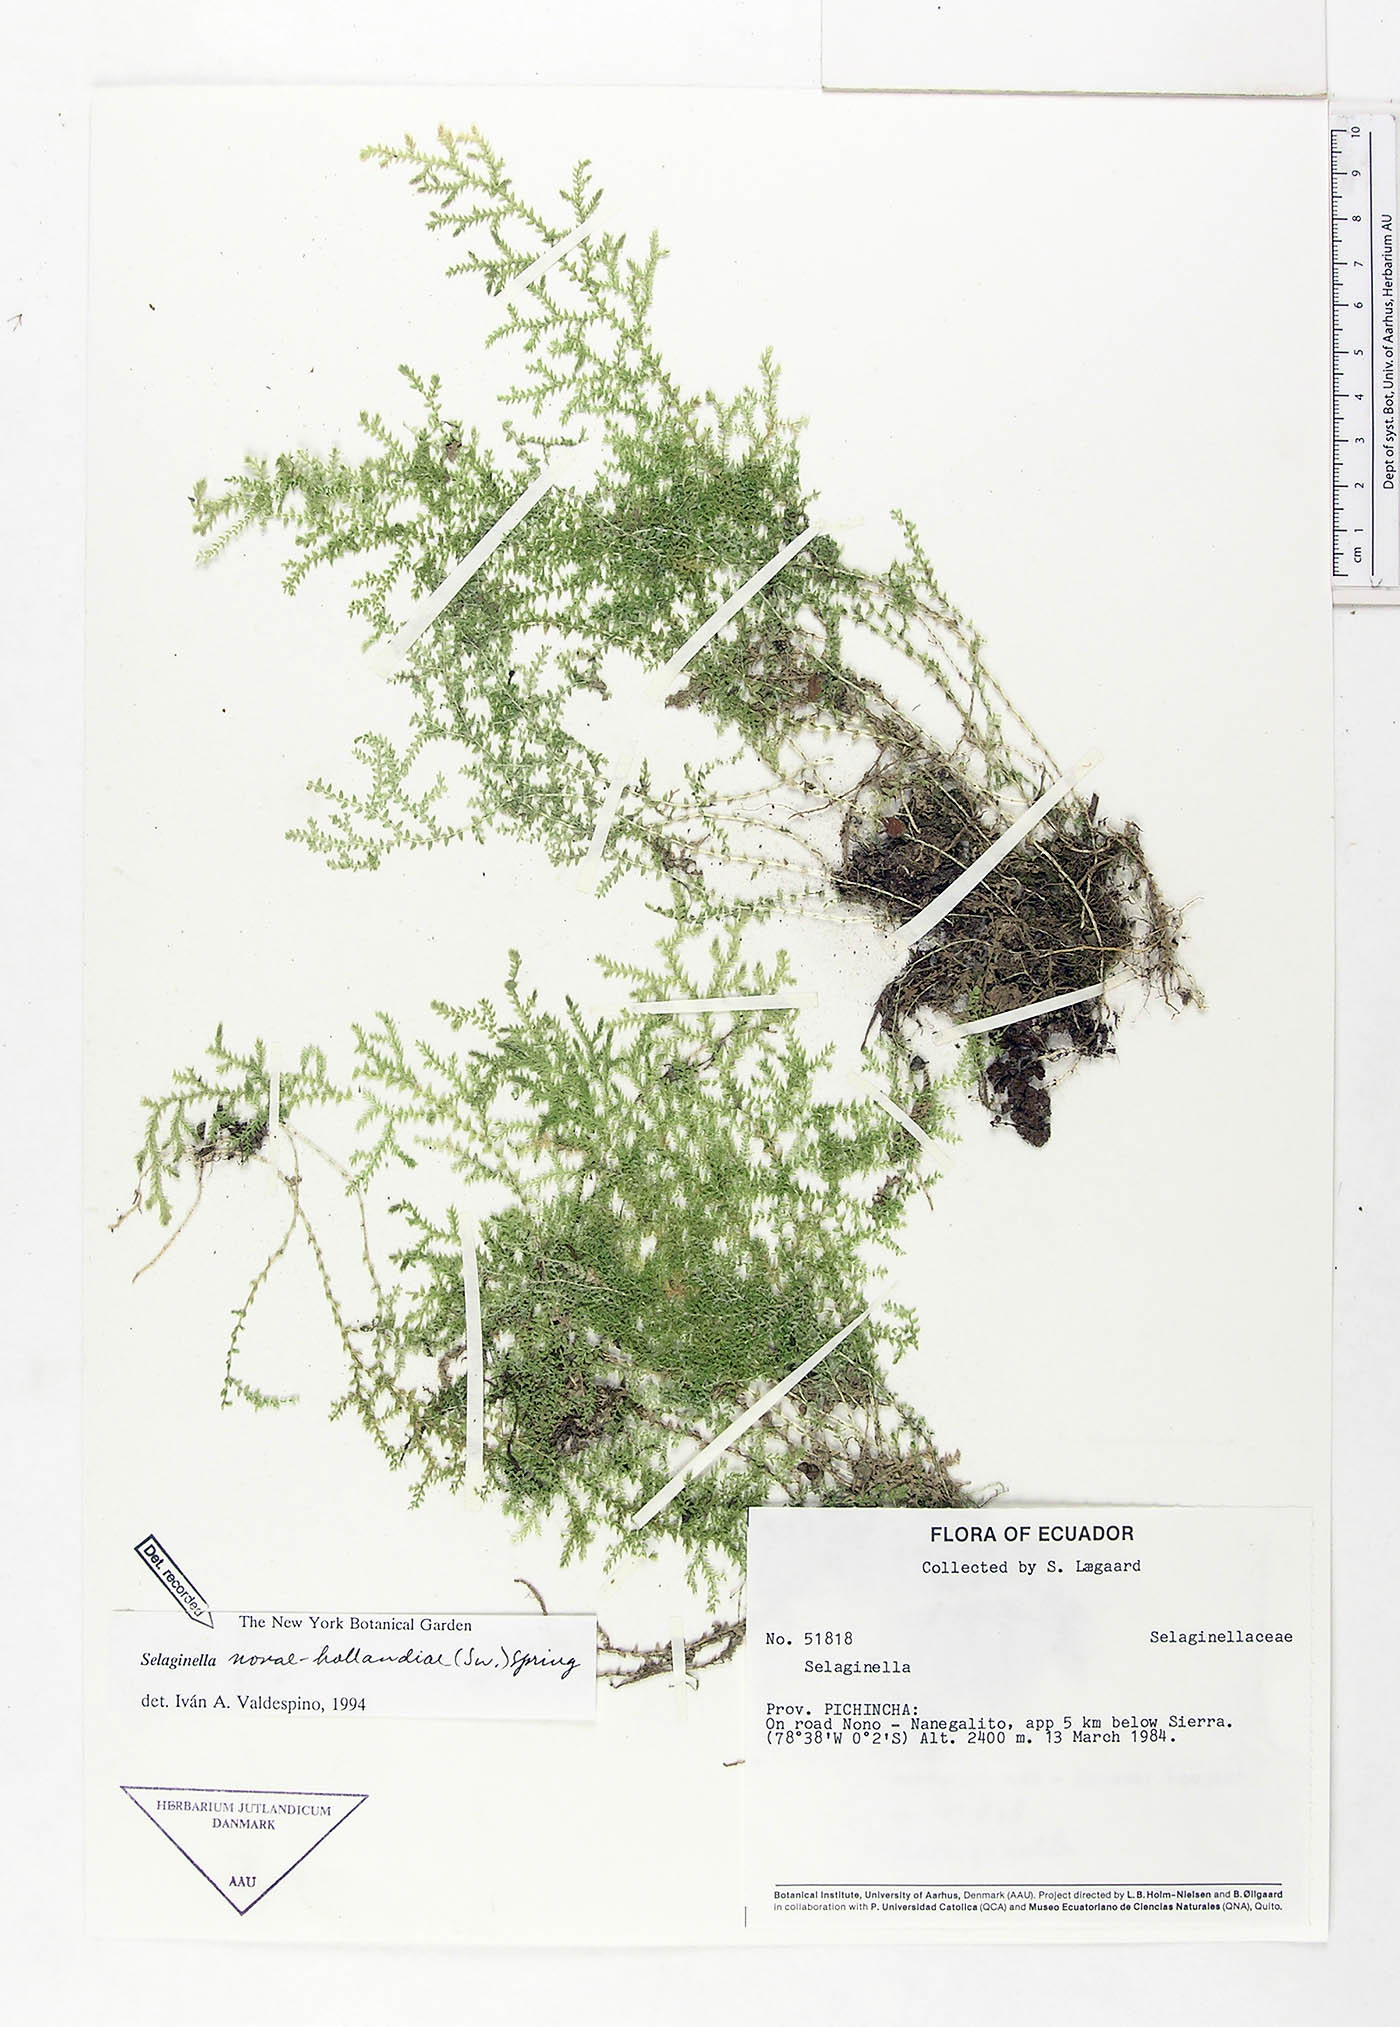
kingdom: Plantae
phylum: Tracheophyta
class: Lycopodiopsida
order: Selaginellales
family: Selaginellaceae
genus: Selaginella
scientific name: Selaginella novae-hollandiae
